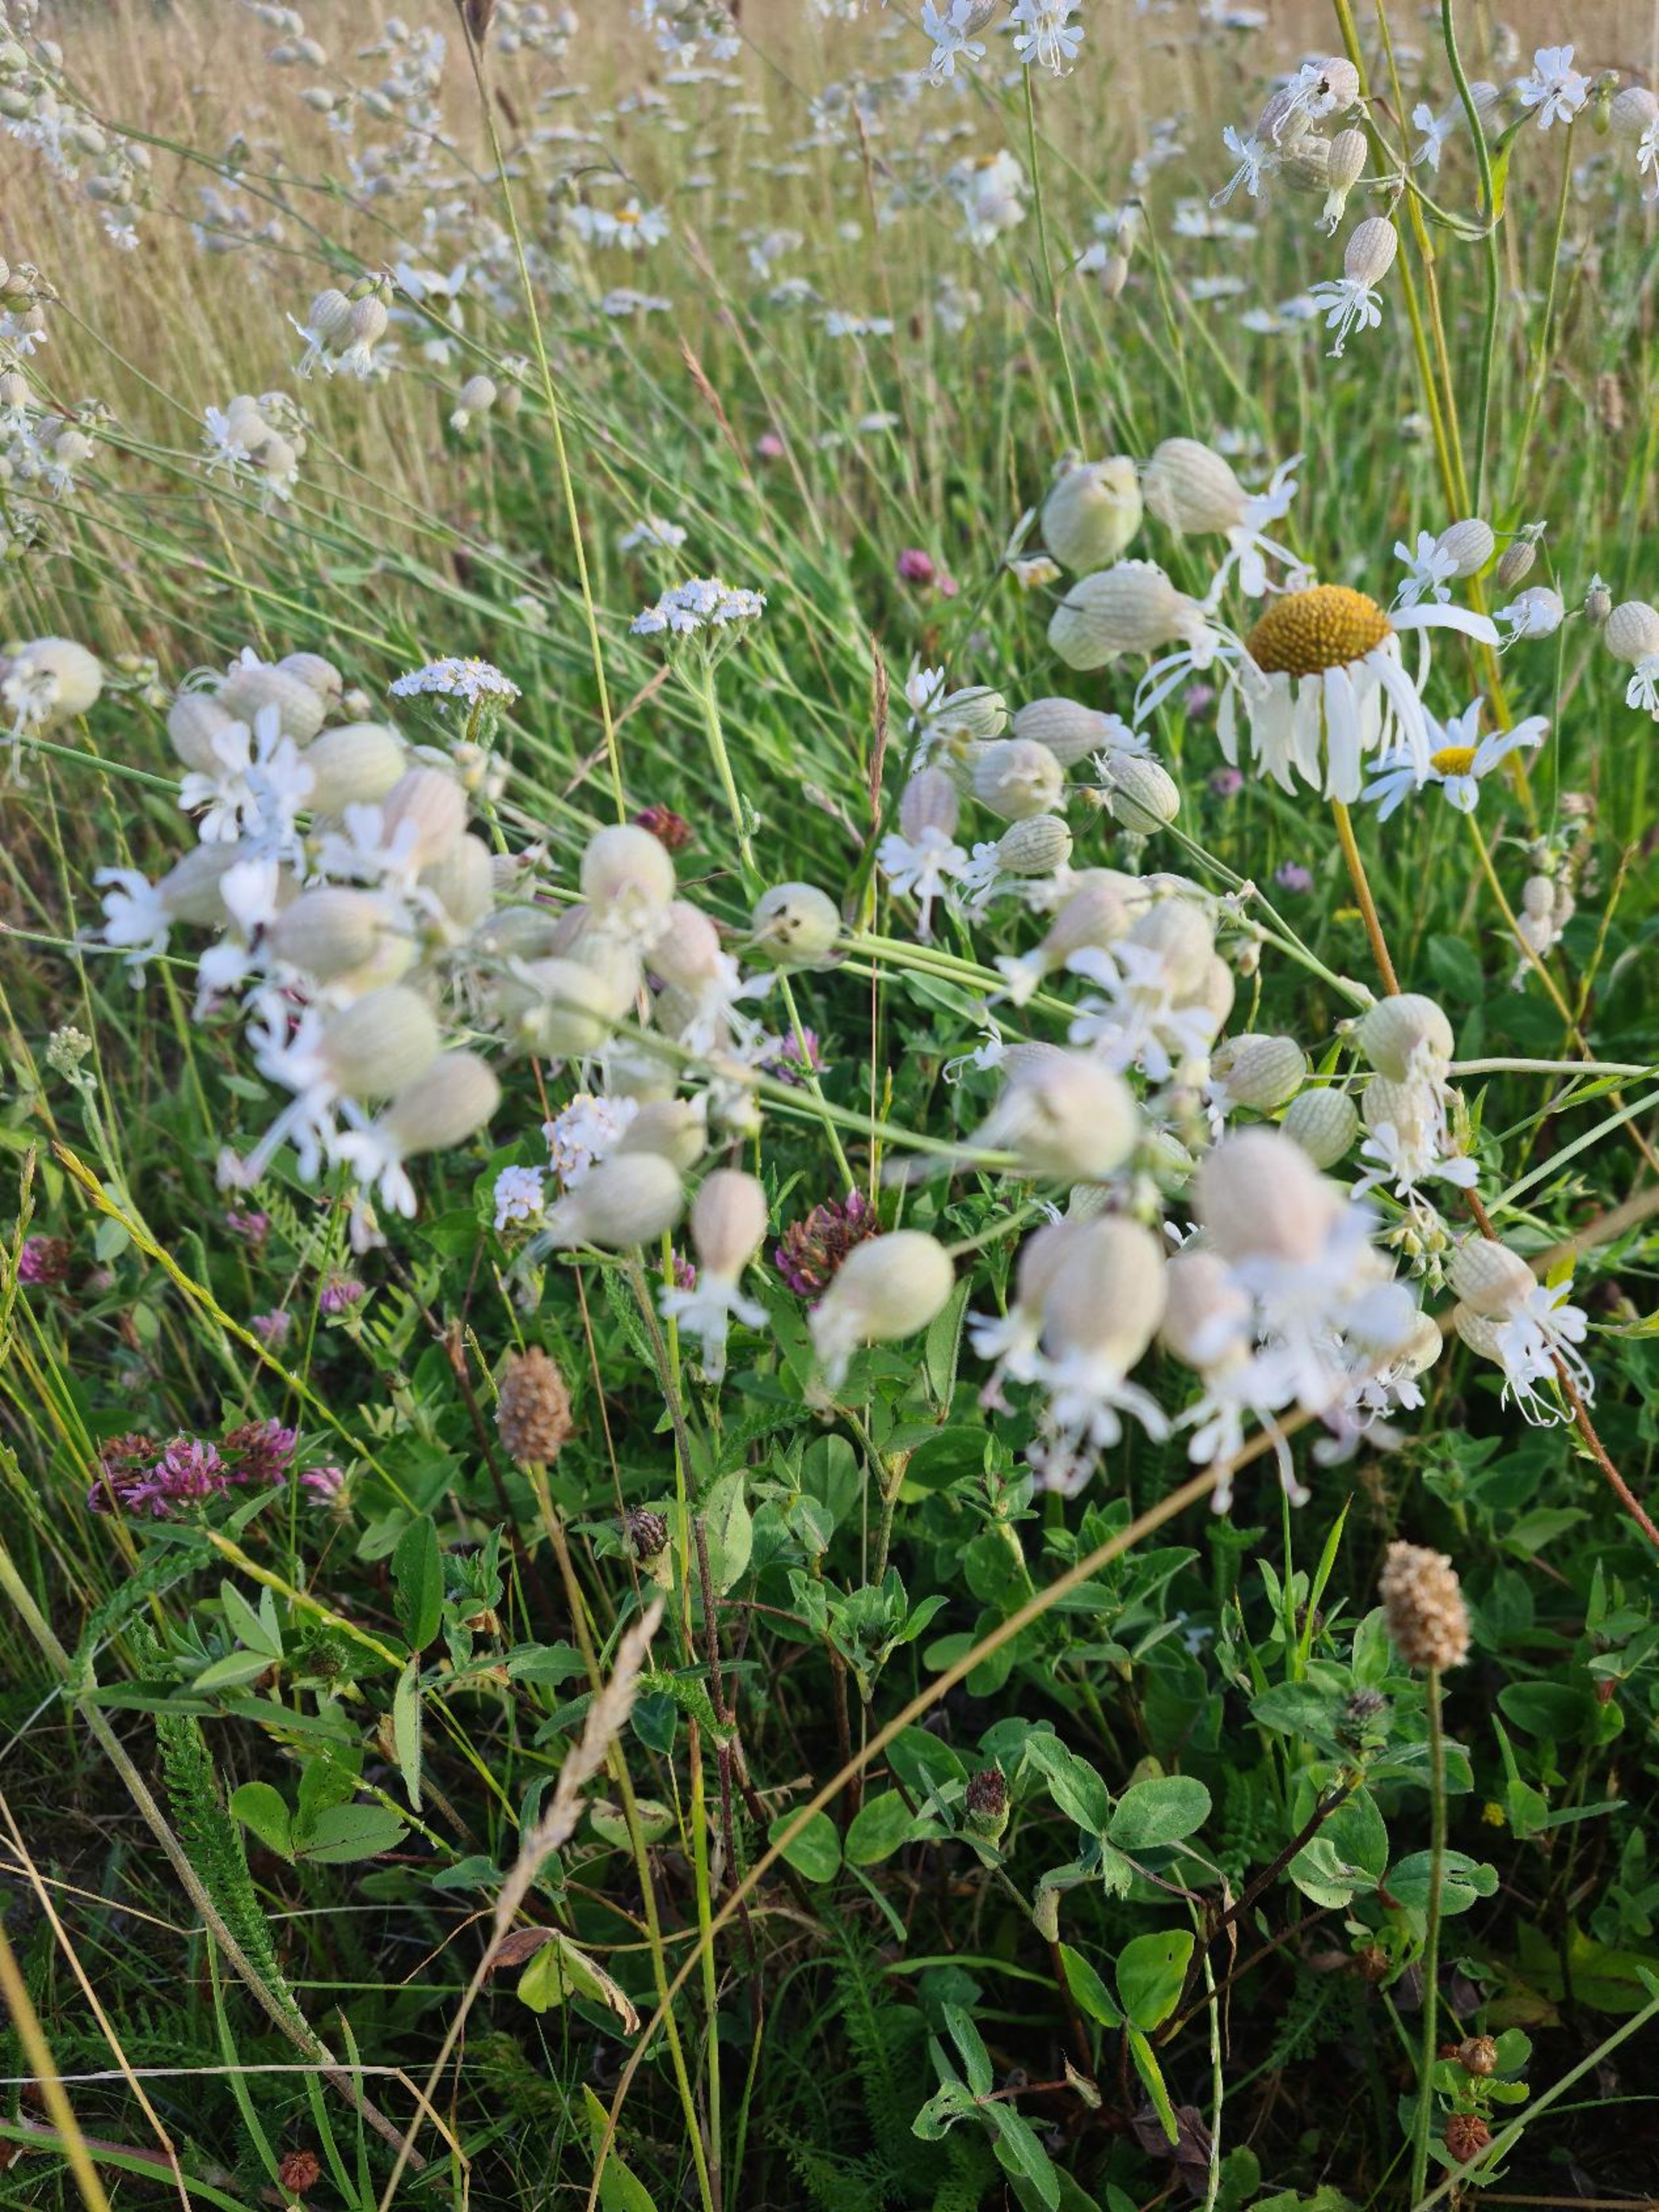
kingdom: Plantae
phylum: Tracheophyta
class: Magnoliopsida
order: Caryophyllales
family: Caryophyllaceae
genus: Silene
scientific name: Silene vulgaris
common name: Blæresmælde
